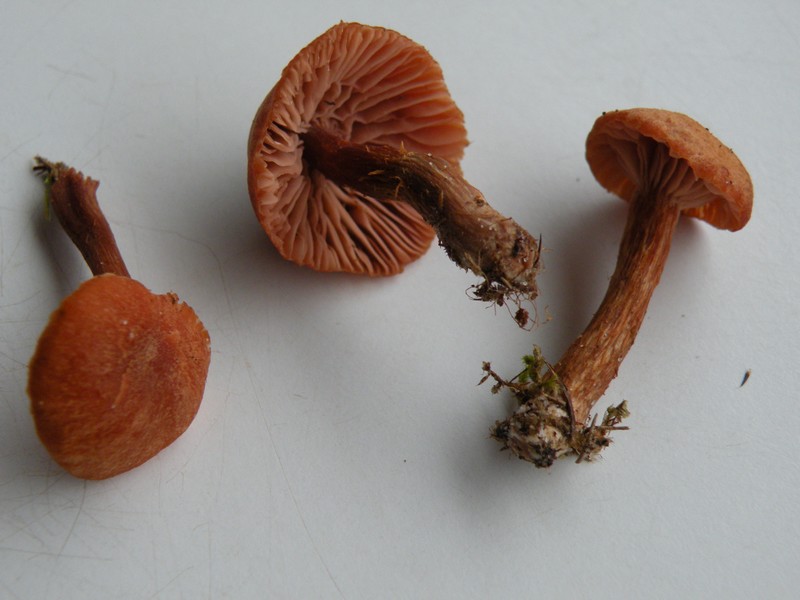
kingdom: Fungi
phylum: Basidiomycota
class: Agaricomycetes
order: Agaricales
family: Hydnangiaceae
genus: Laccaria
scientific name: Laccaria maritima
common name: klit-ametysthat
